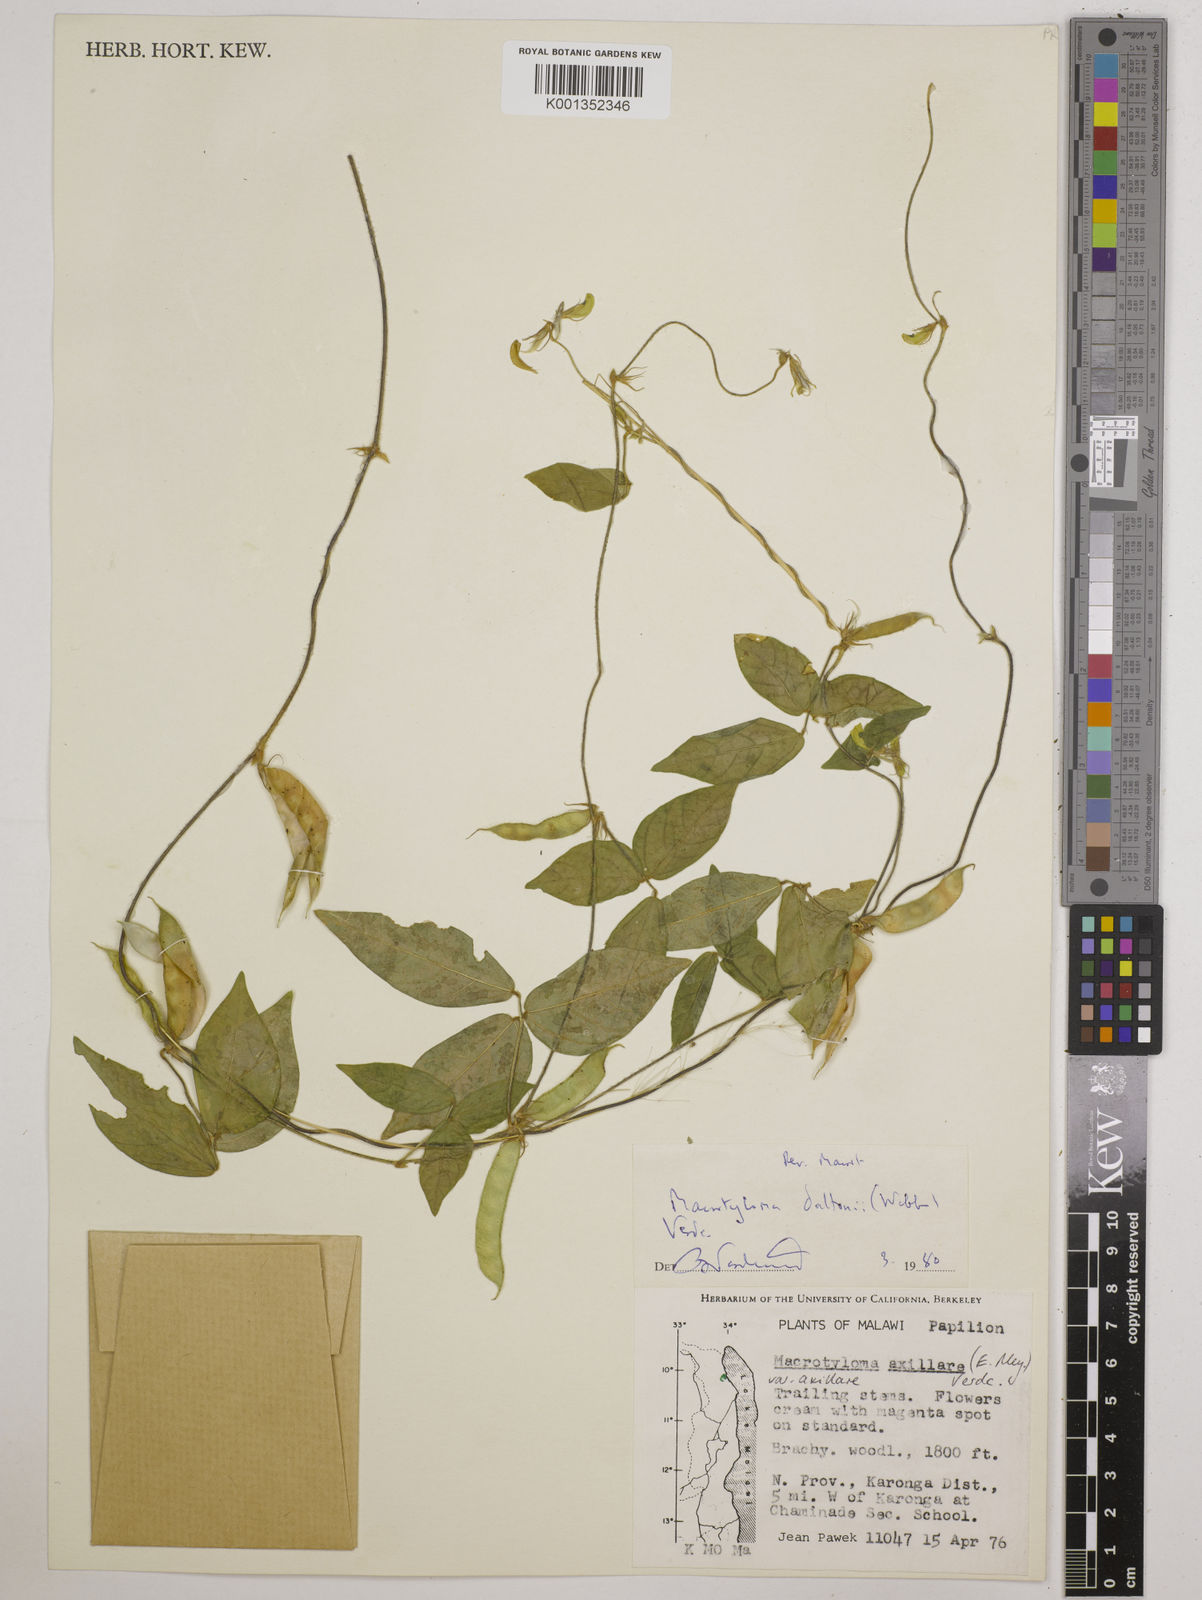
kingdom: Plantae
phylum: Tracheophyta
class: Magnoliopsida
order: Fabales
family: Fabaceae
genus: Macrotyloma
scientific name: Macrotyloma daltonii
